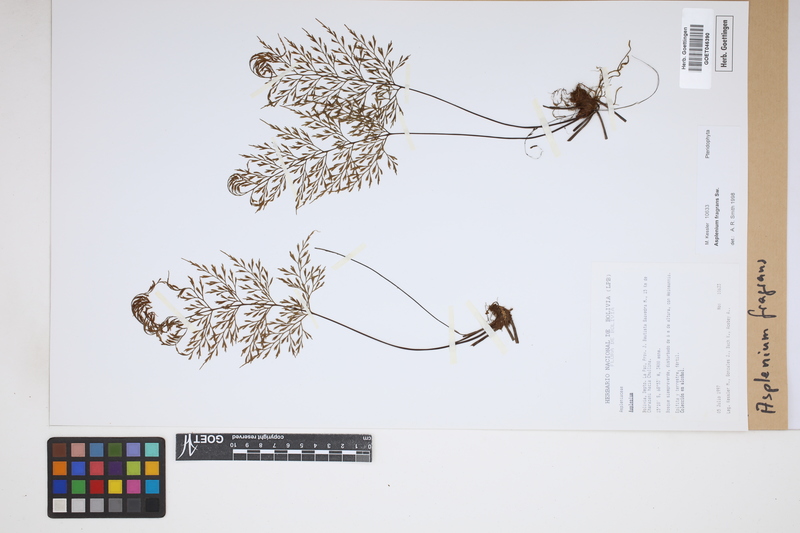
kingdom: Plantae
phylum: Tracheophyta
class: Polypodiopsida
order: Polypodiales
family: Aspleniaceae
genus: Asplenium
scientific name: Asplenium fragrans
